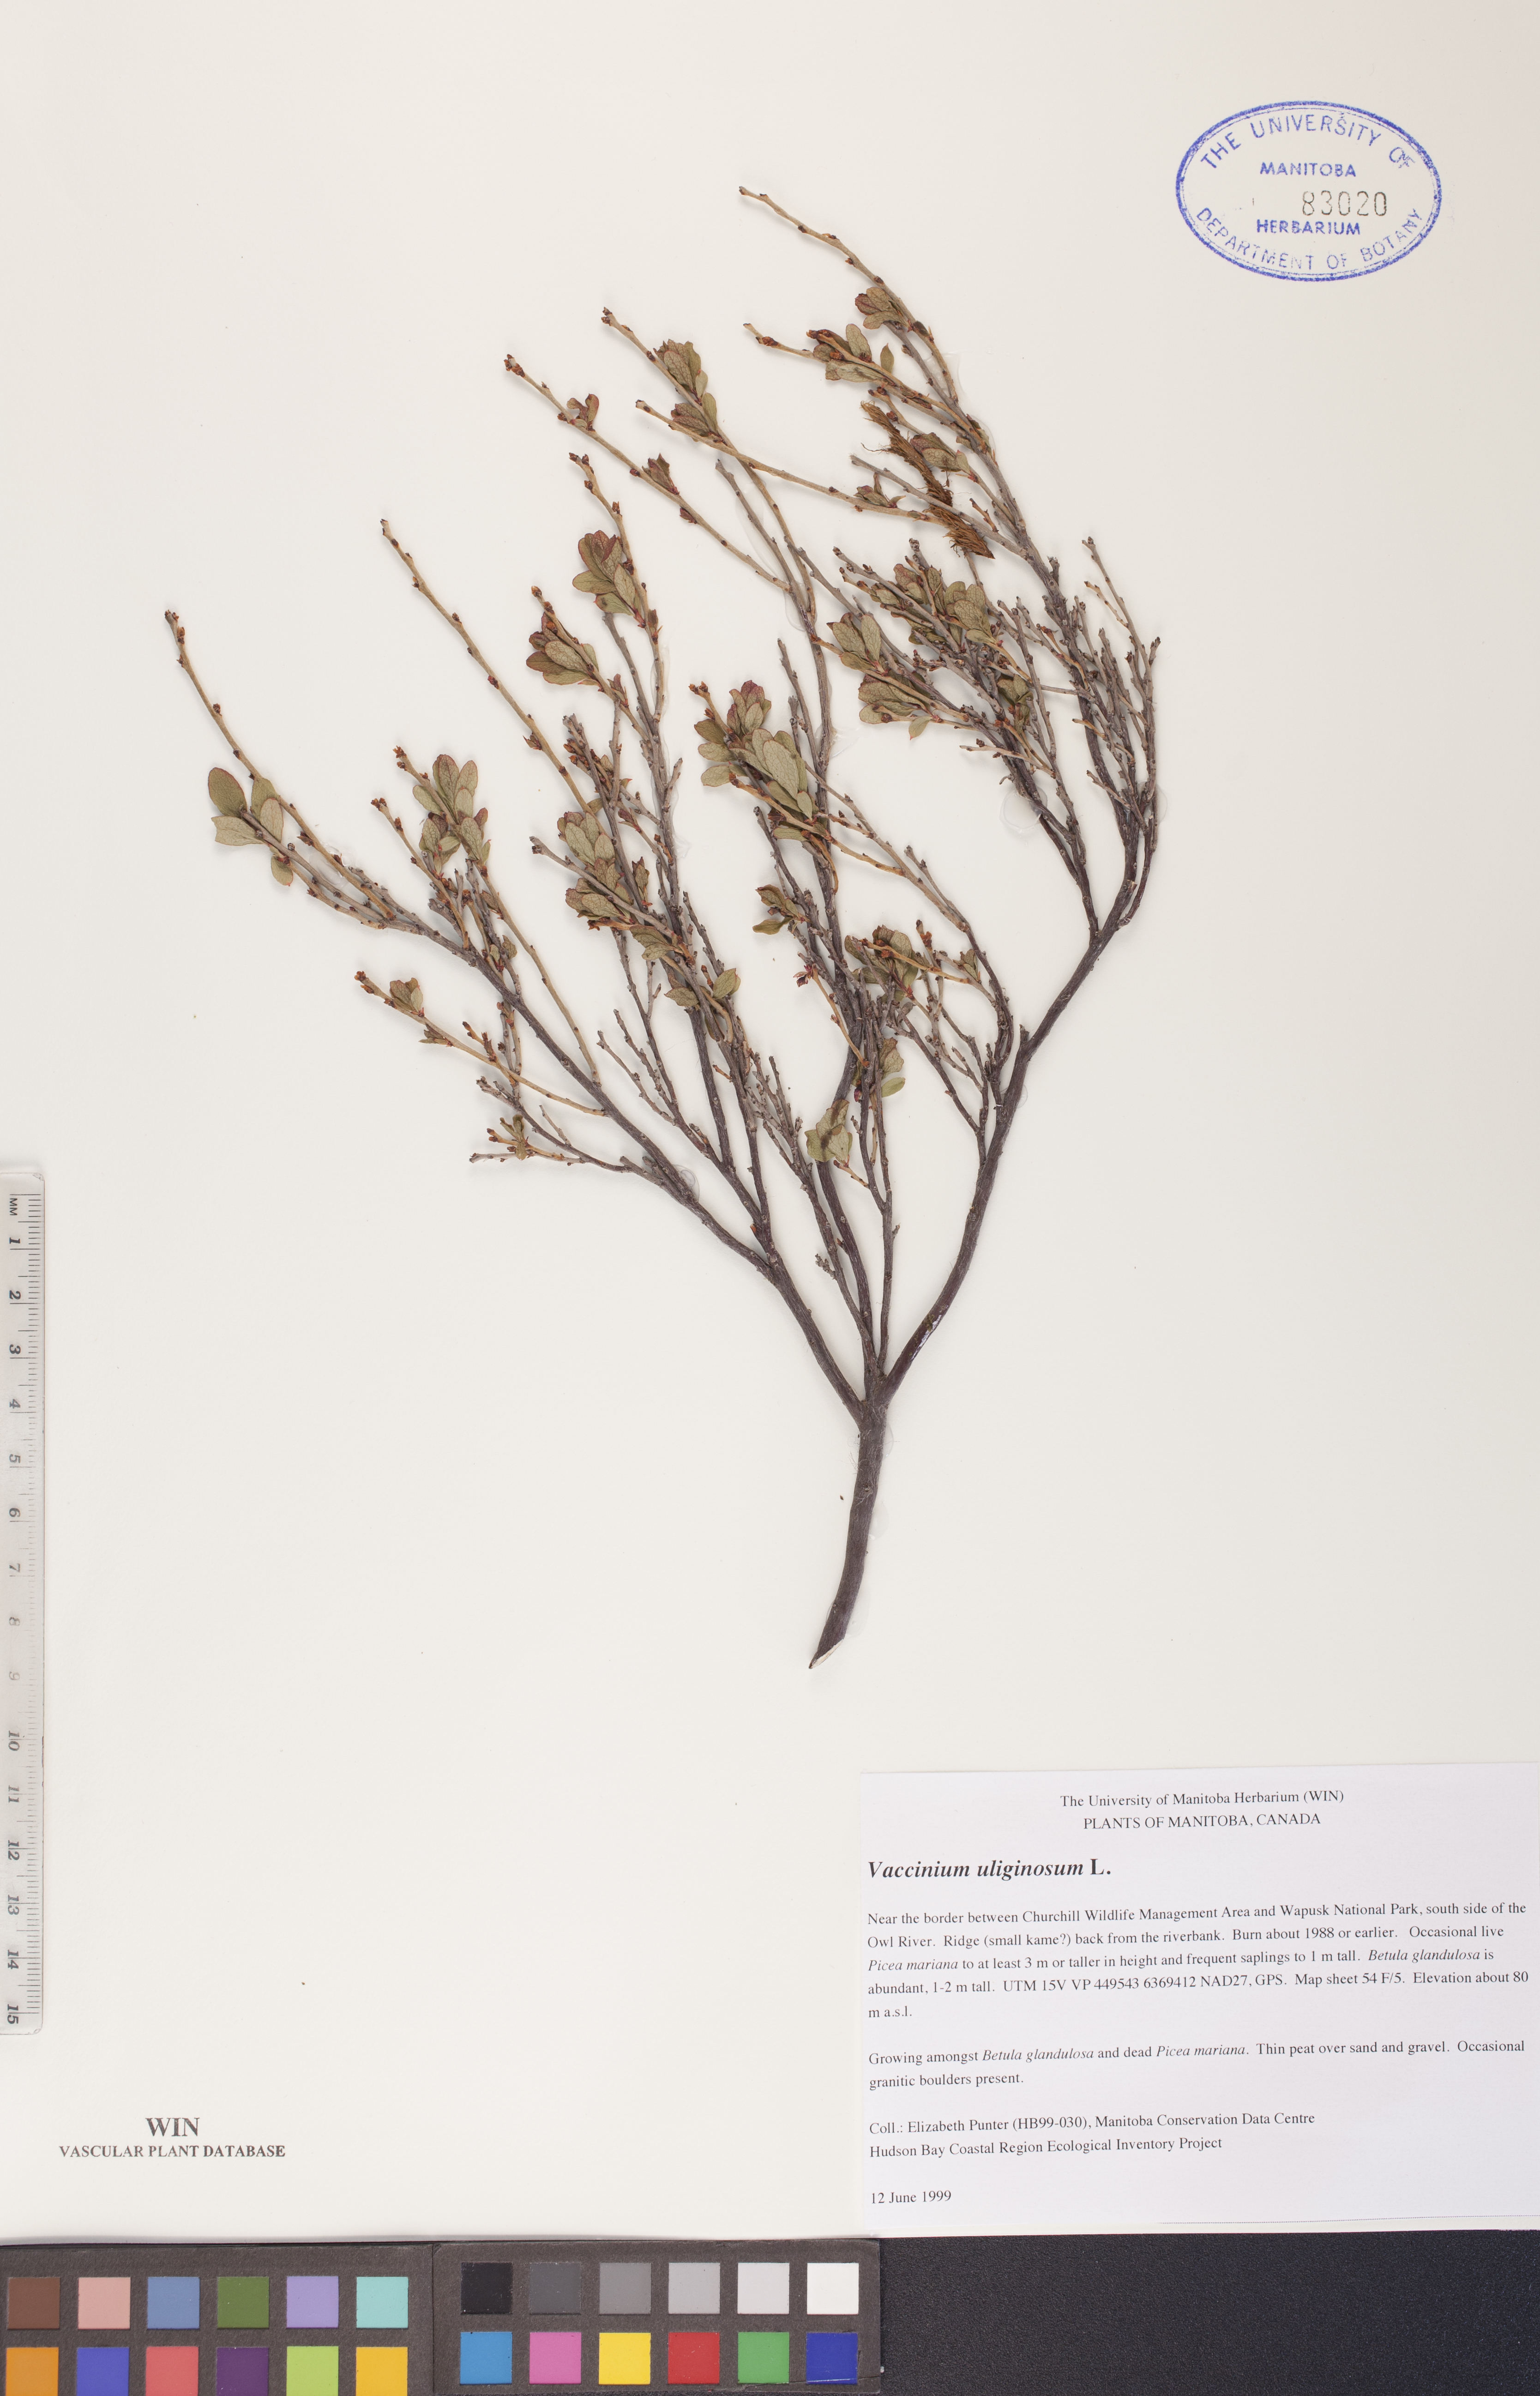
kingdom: Plantae
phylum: Tracheophyta
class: Magnoliopsida
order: Ericales
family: Ericaceae
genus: Vaccinium
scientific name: Vaccinium uliginosum
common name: Bog bilberry
